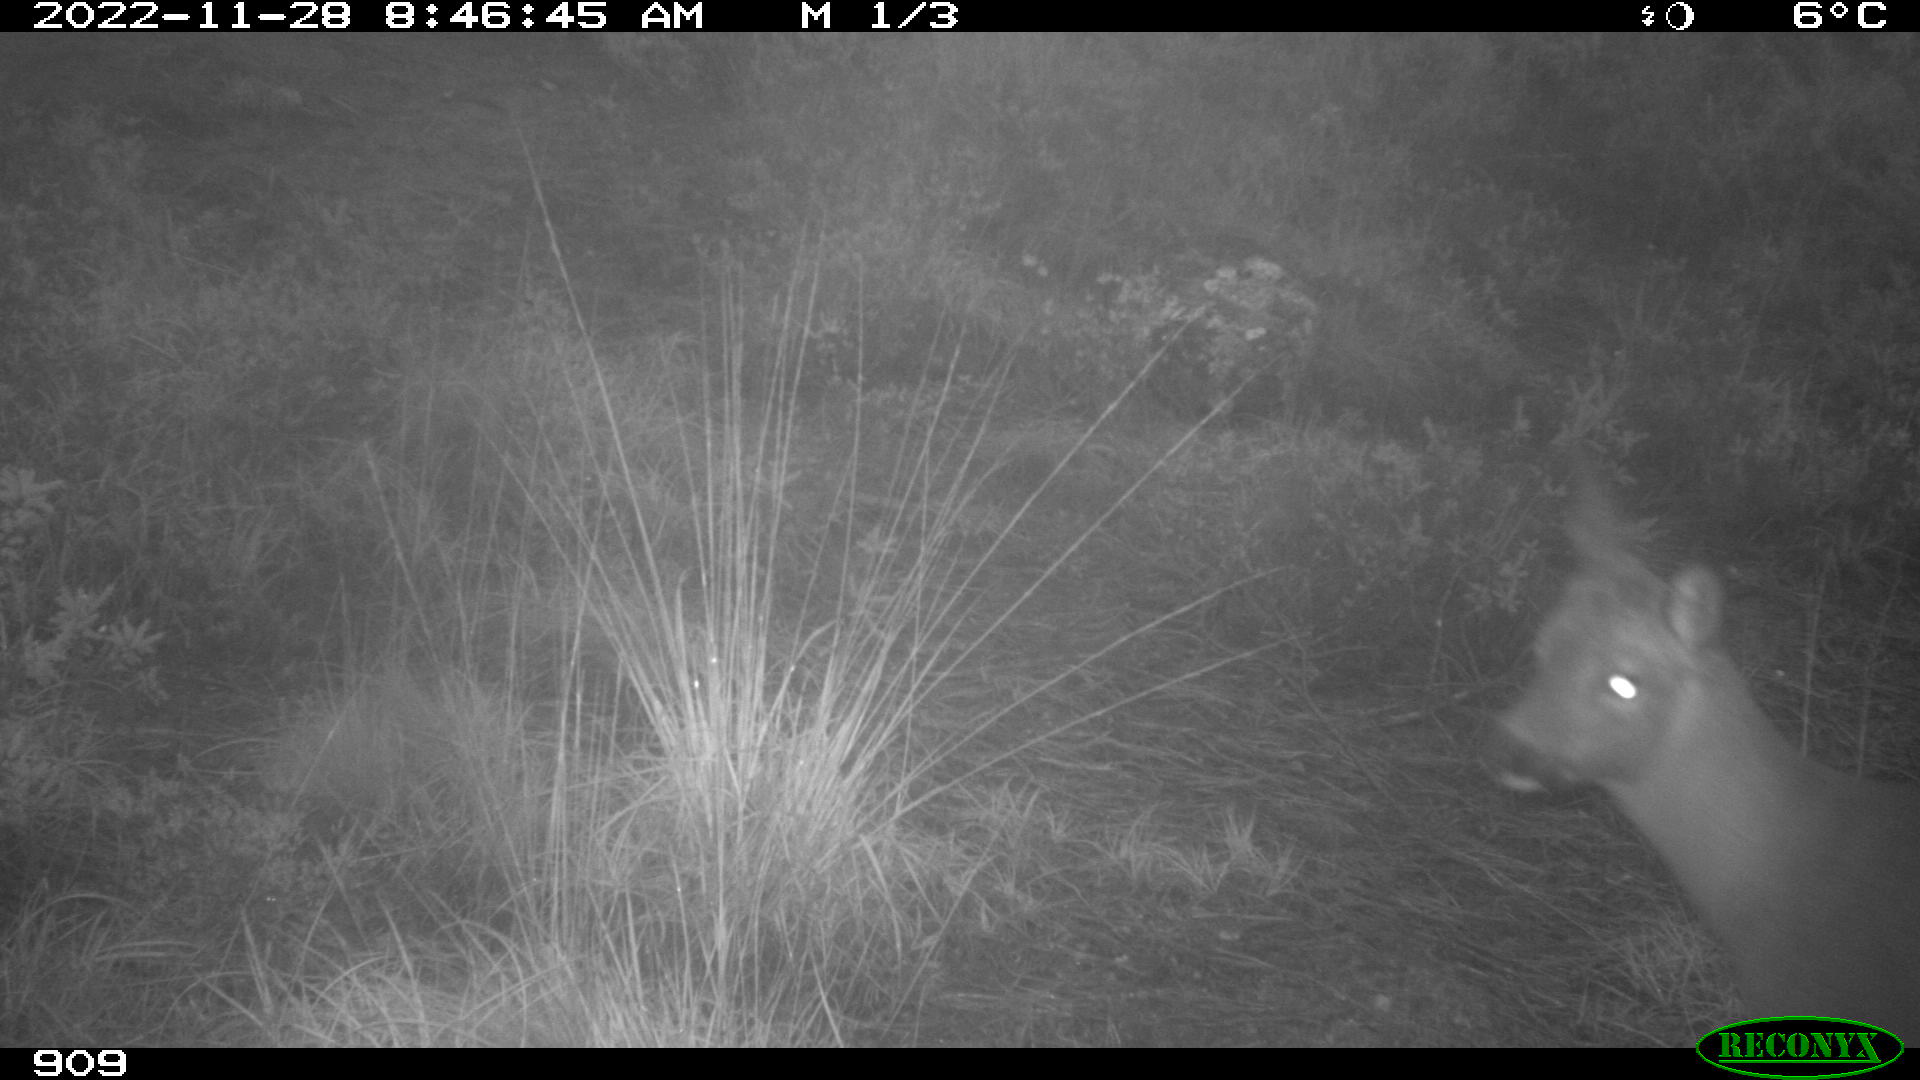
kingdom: Animalia
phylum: Chordata
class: Mammalia
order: Artiodactyla
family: Cervidae
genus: Capreolus
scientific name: Capreolus capreolus
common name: Western roe deer
